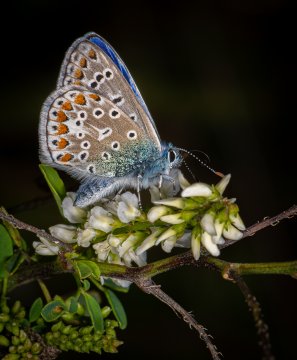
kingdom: Animalia
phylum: Arthropoda
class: Insecta
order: Lepidoptera
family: Lycaenidae
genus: Polyommatus
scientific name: Polyommatus icarus
